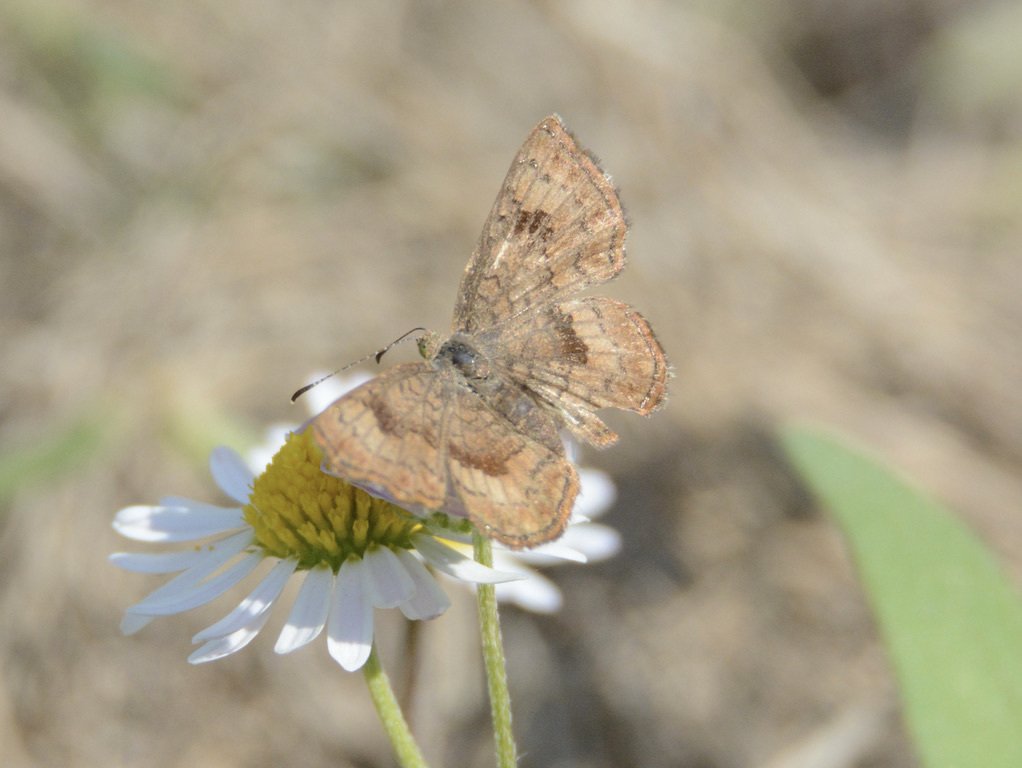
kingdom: Animalia
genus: Calephelis
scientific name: Calephelis nemesis
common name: Fatal Metalmark
